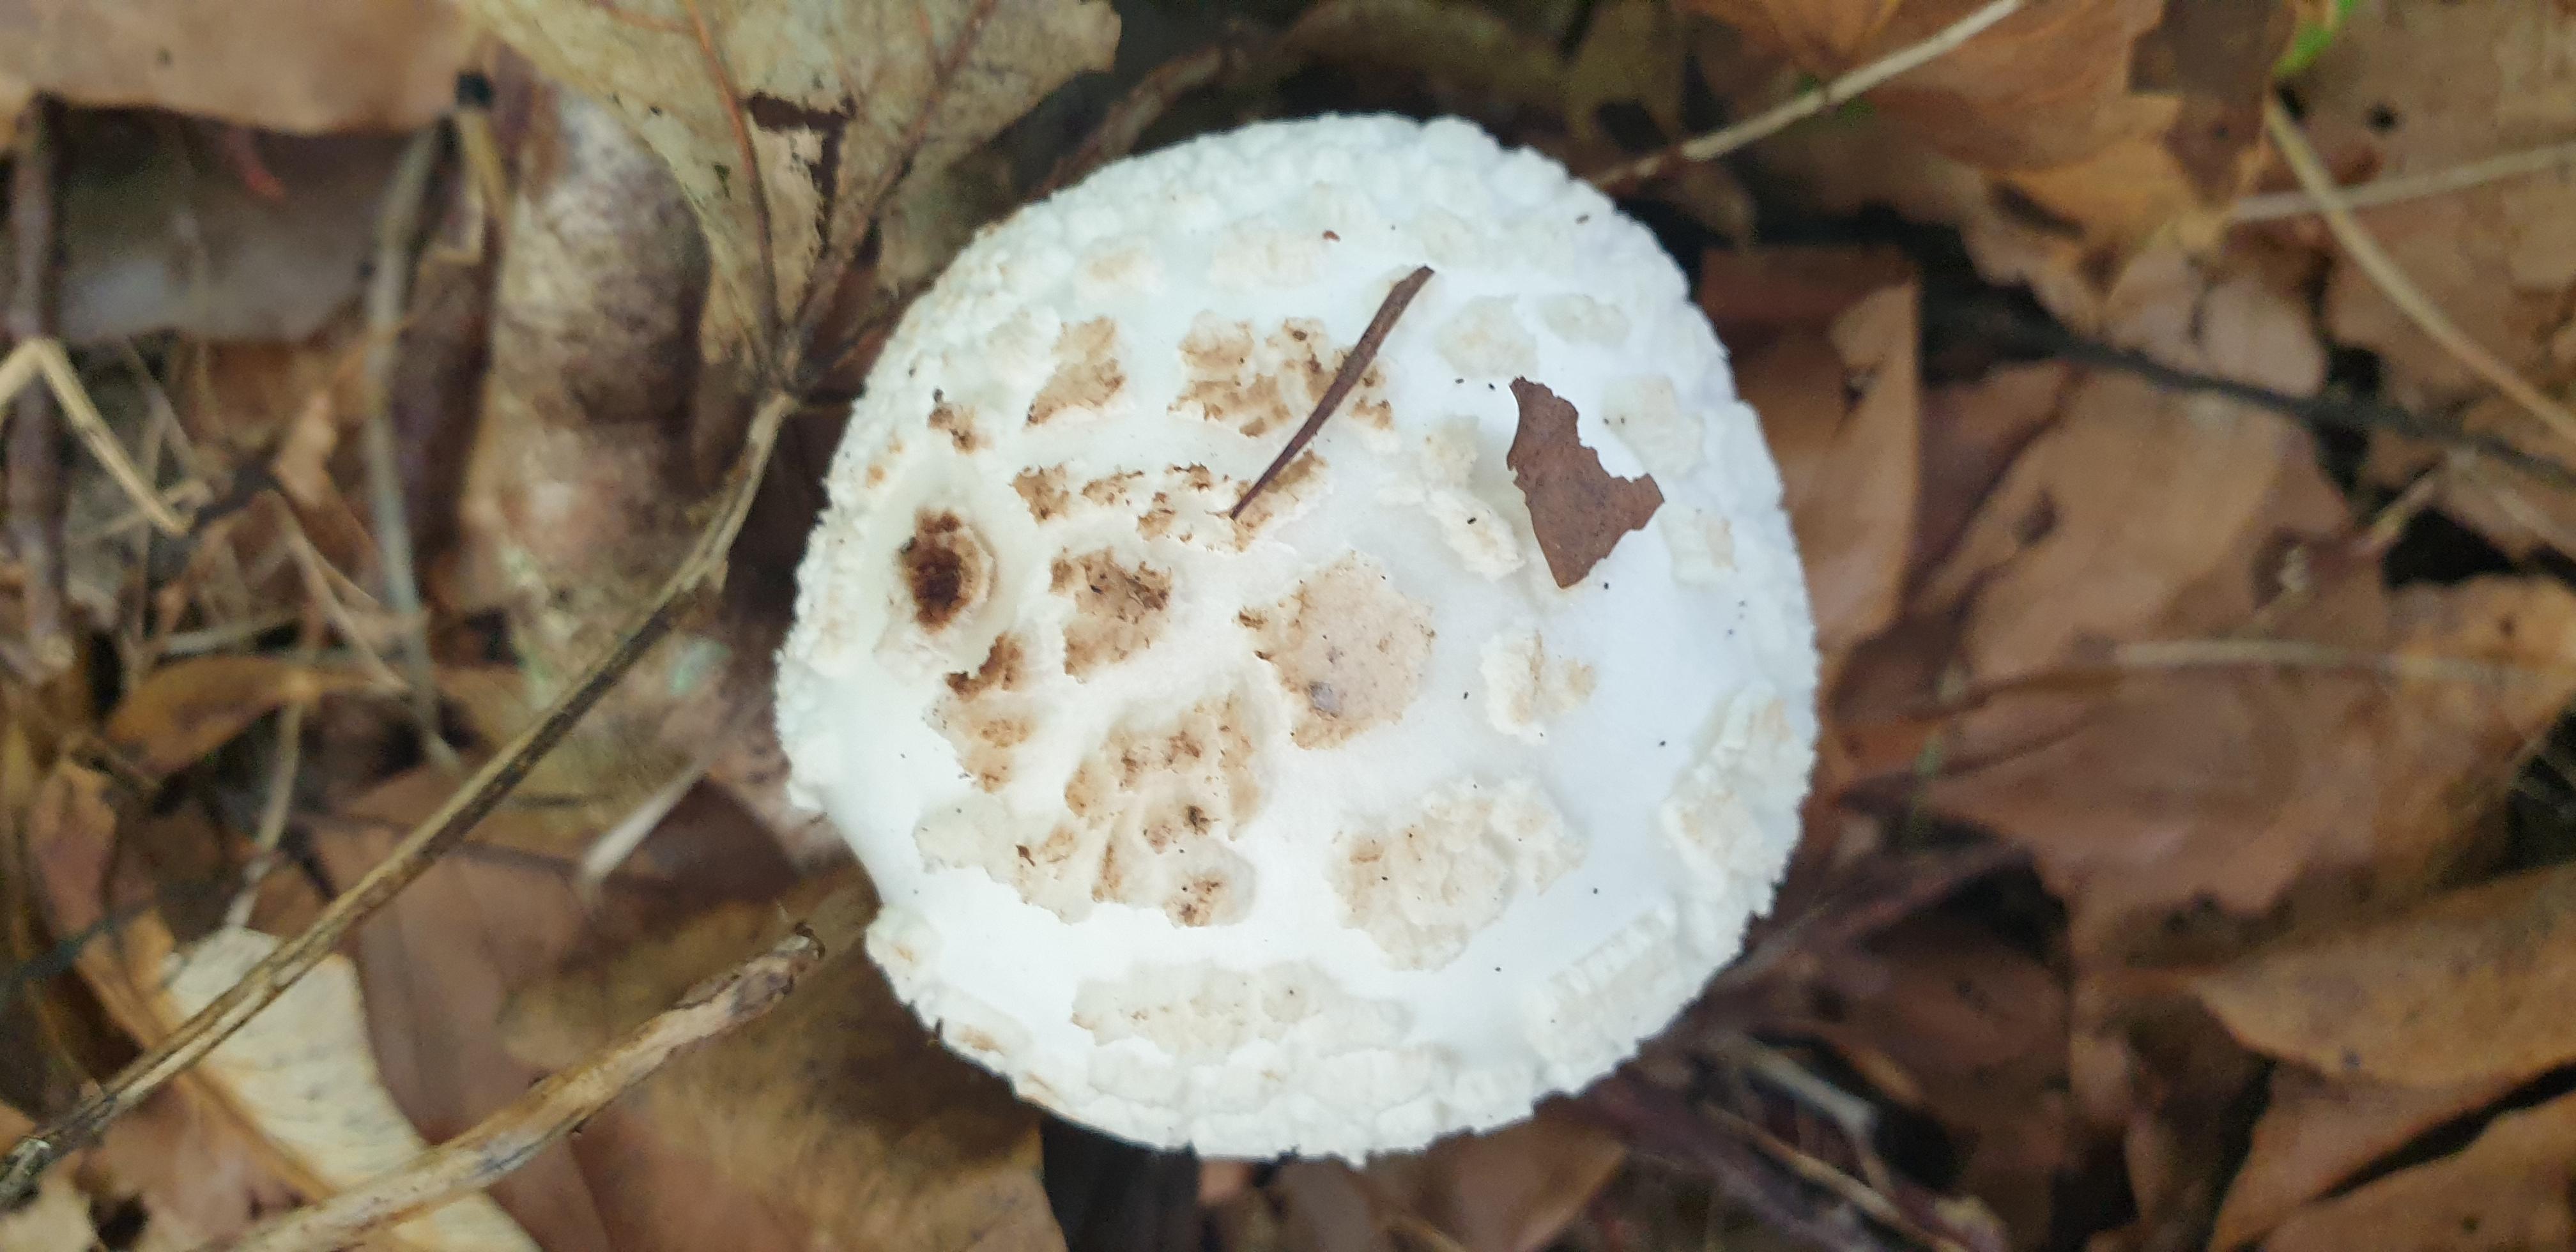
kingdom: Fungi
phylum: Basidiomycota
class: Agaricomycetes
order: Agaricales
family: Amanitaceae
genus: Amanita
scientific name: Amanita citrina
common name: kugleknoldet fluesvamp
